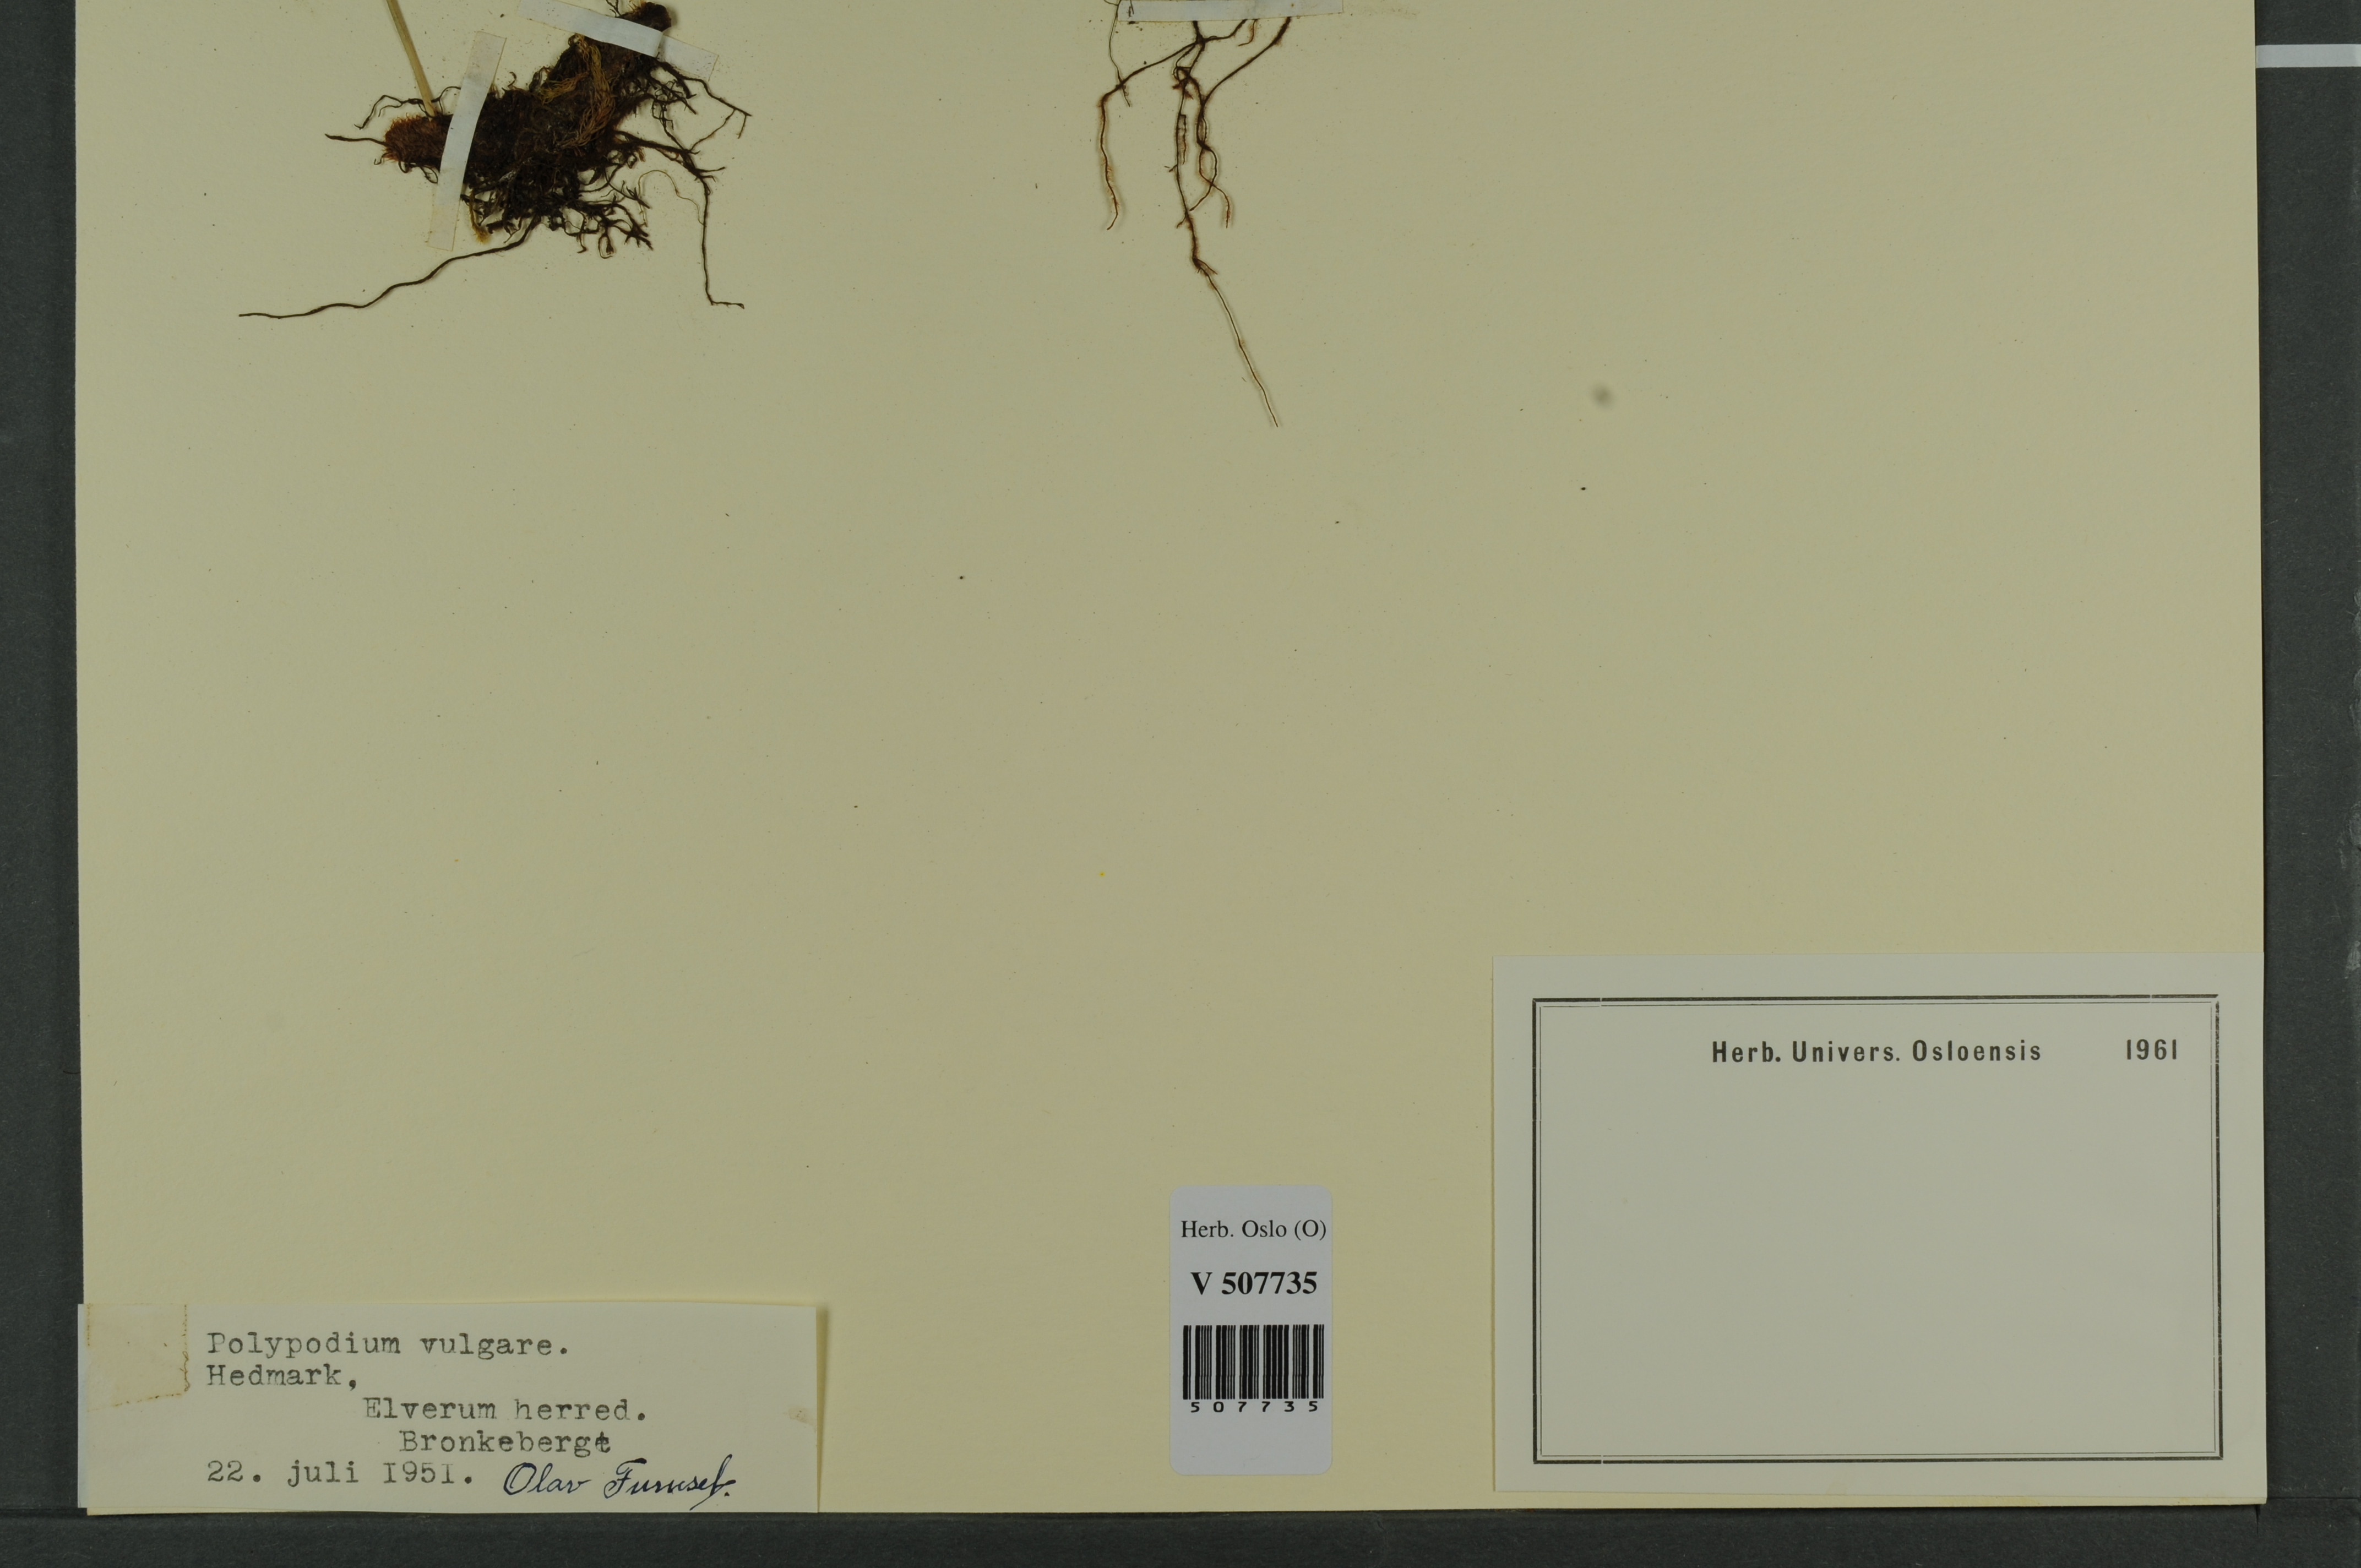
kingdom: Plantae
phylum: Tracheophyta
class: Polypodiopsida
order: Polypodiales
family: Polypodiaceae
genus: Polypodium
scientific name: Polypodium vulgare
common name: Common polypody
